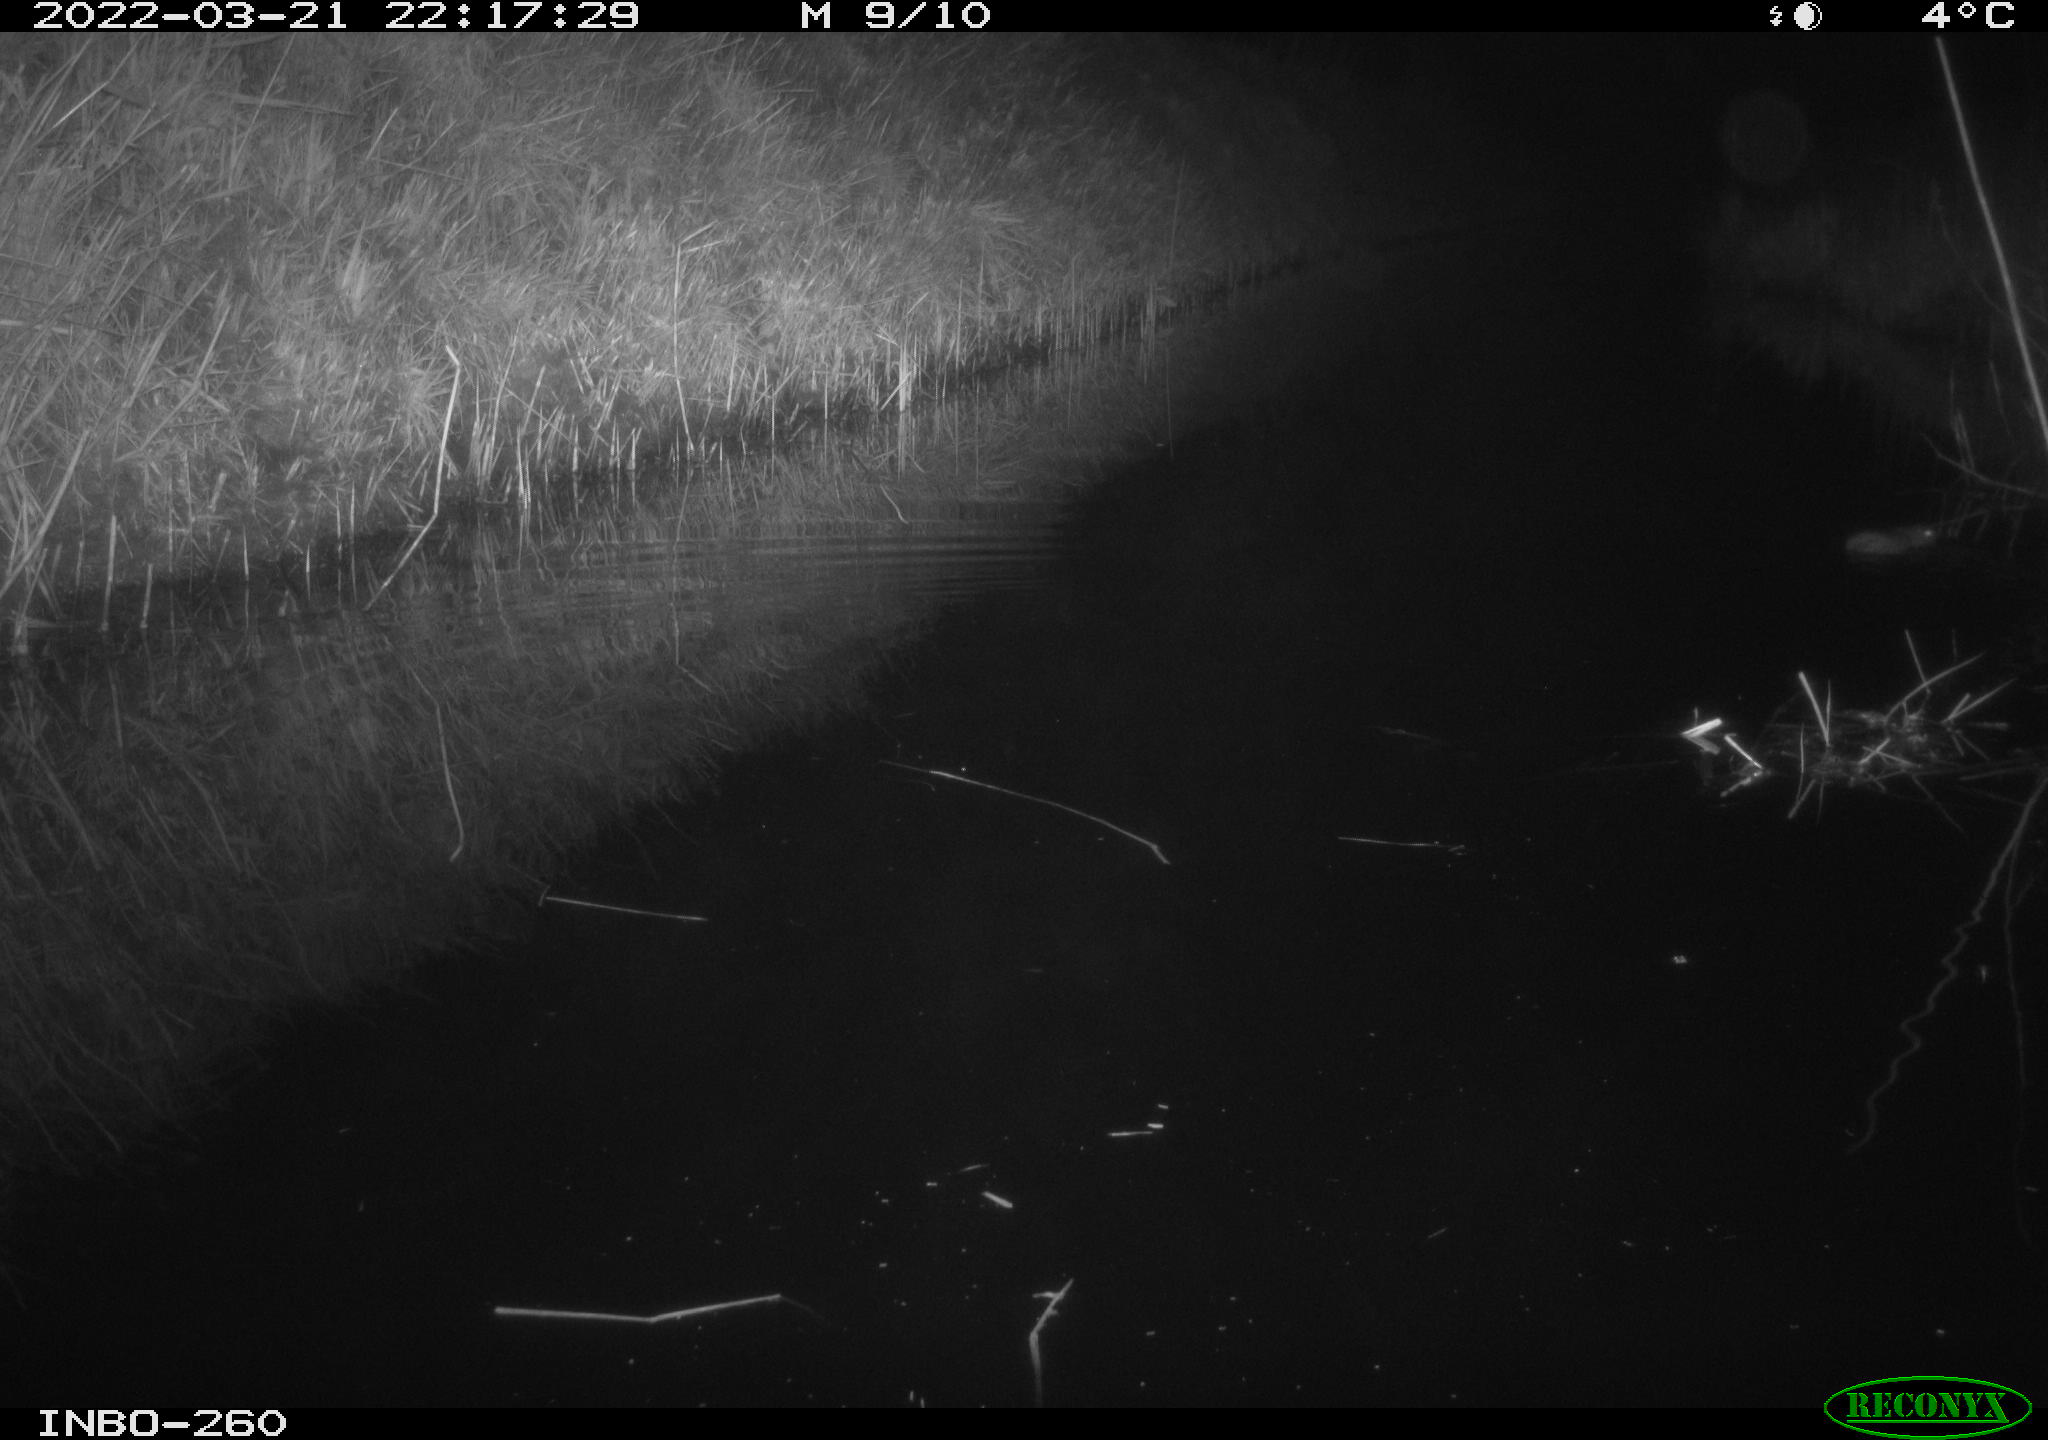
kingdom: Animalia
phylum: Chordata
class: Mammalia
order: Rodentia
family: Muridae
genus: Rattus
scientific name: Rattus norvegicus
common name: Brown rat
